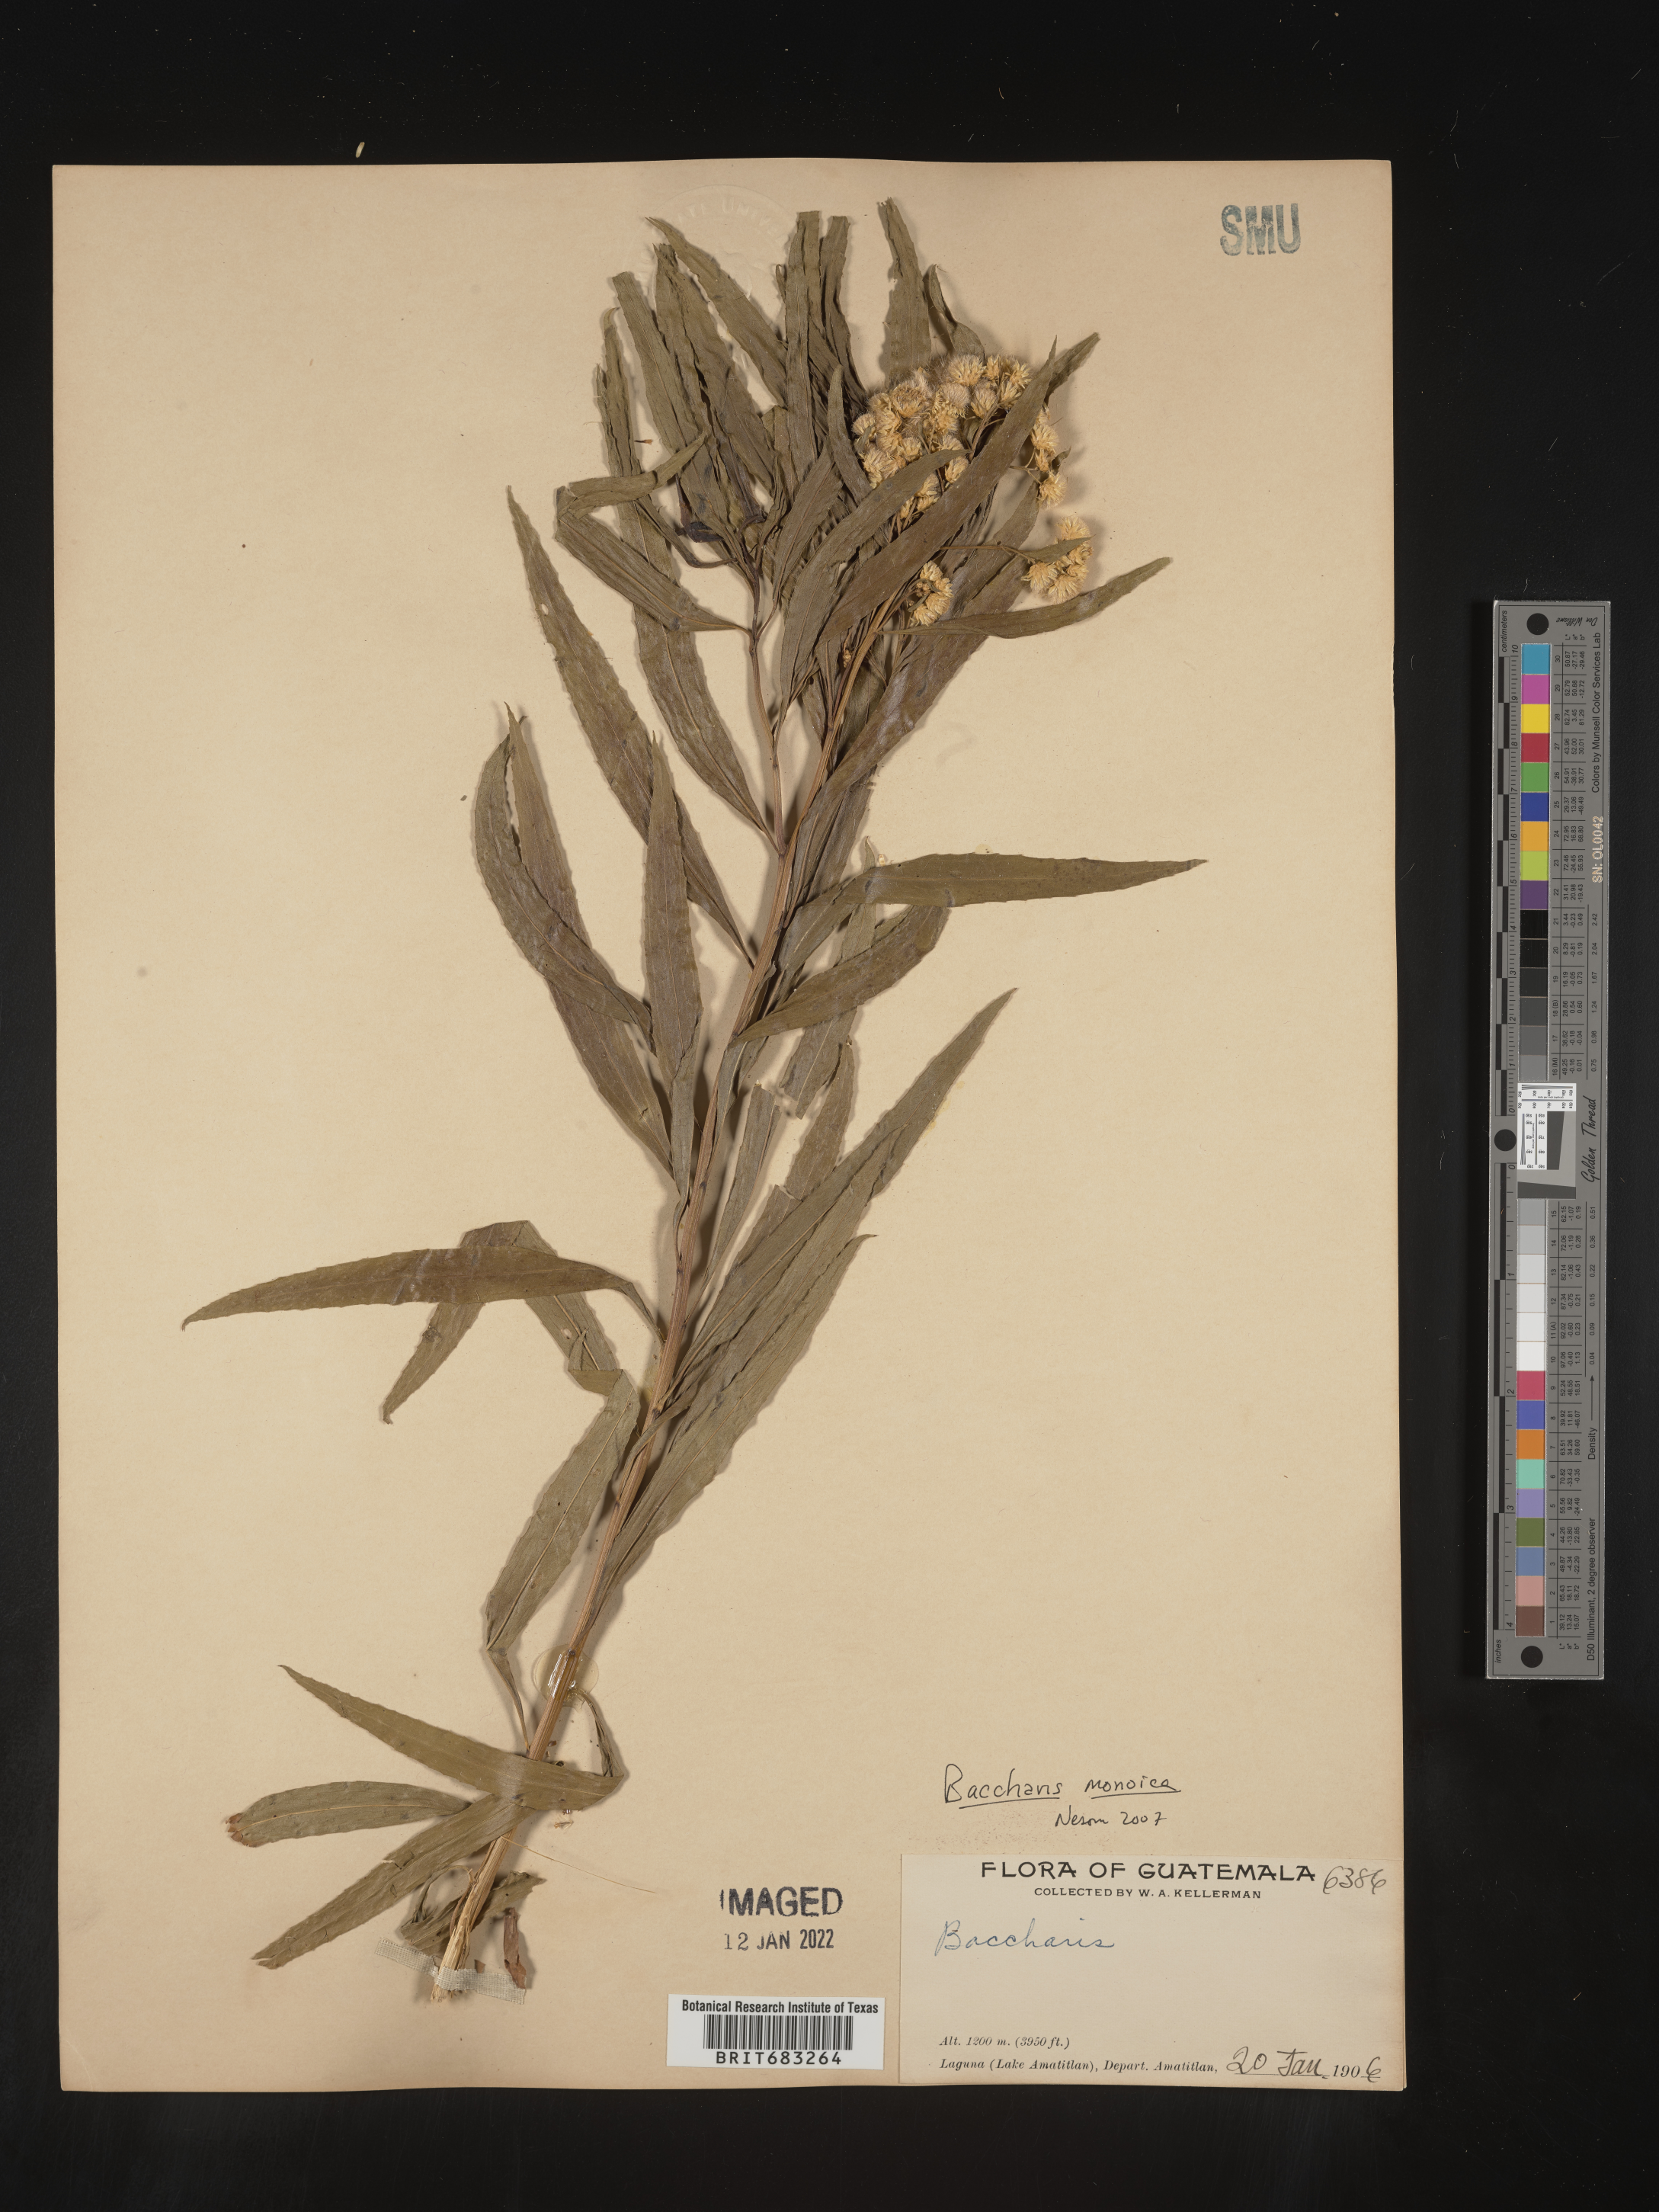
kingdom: Plantae
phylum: Tracheophyta
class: Magnoliopsida
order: Asterales
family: Asteraceae
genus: Baccharis
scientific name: Baccharis salicifolia
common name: Sticky baccharis
